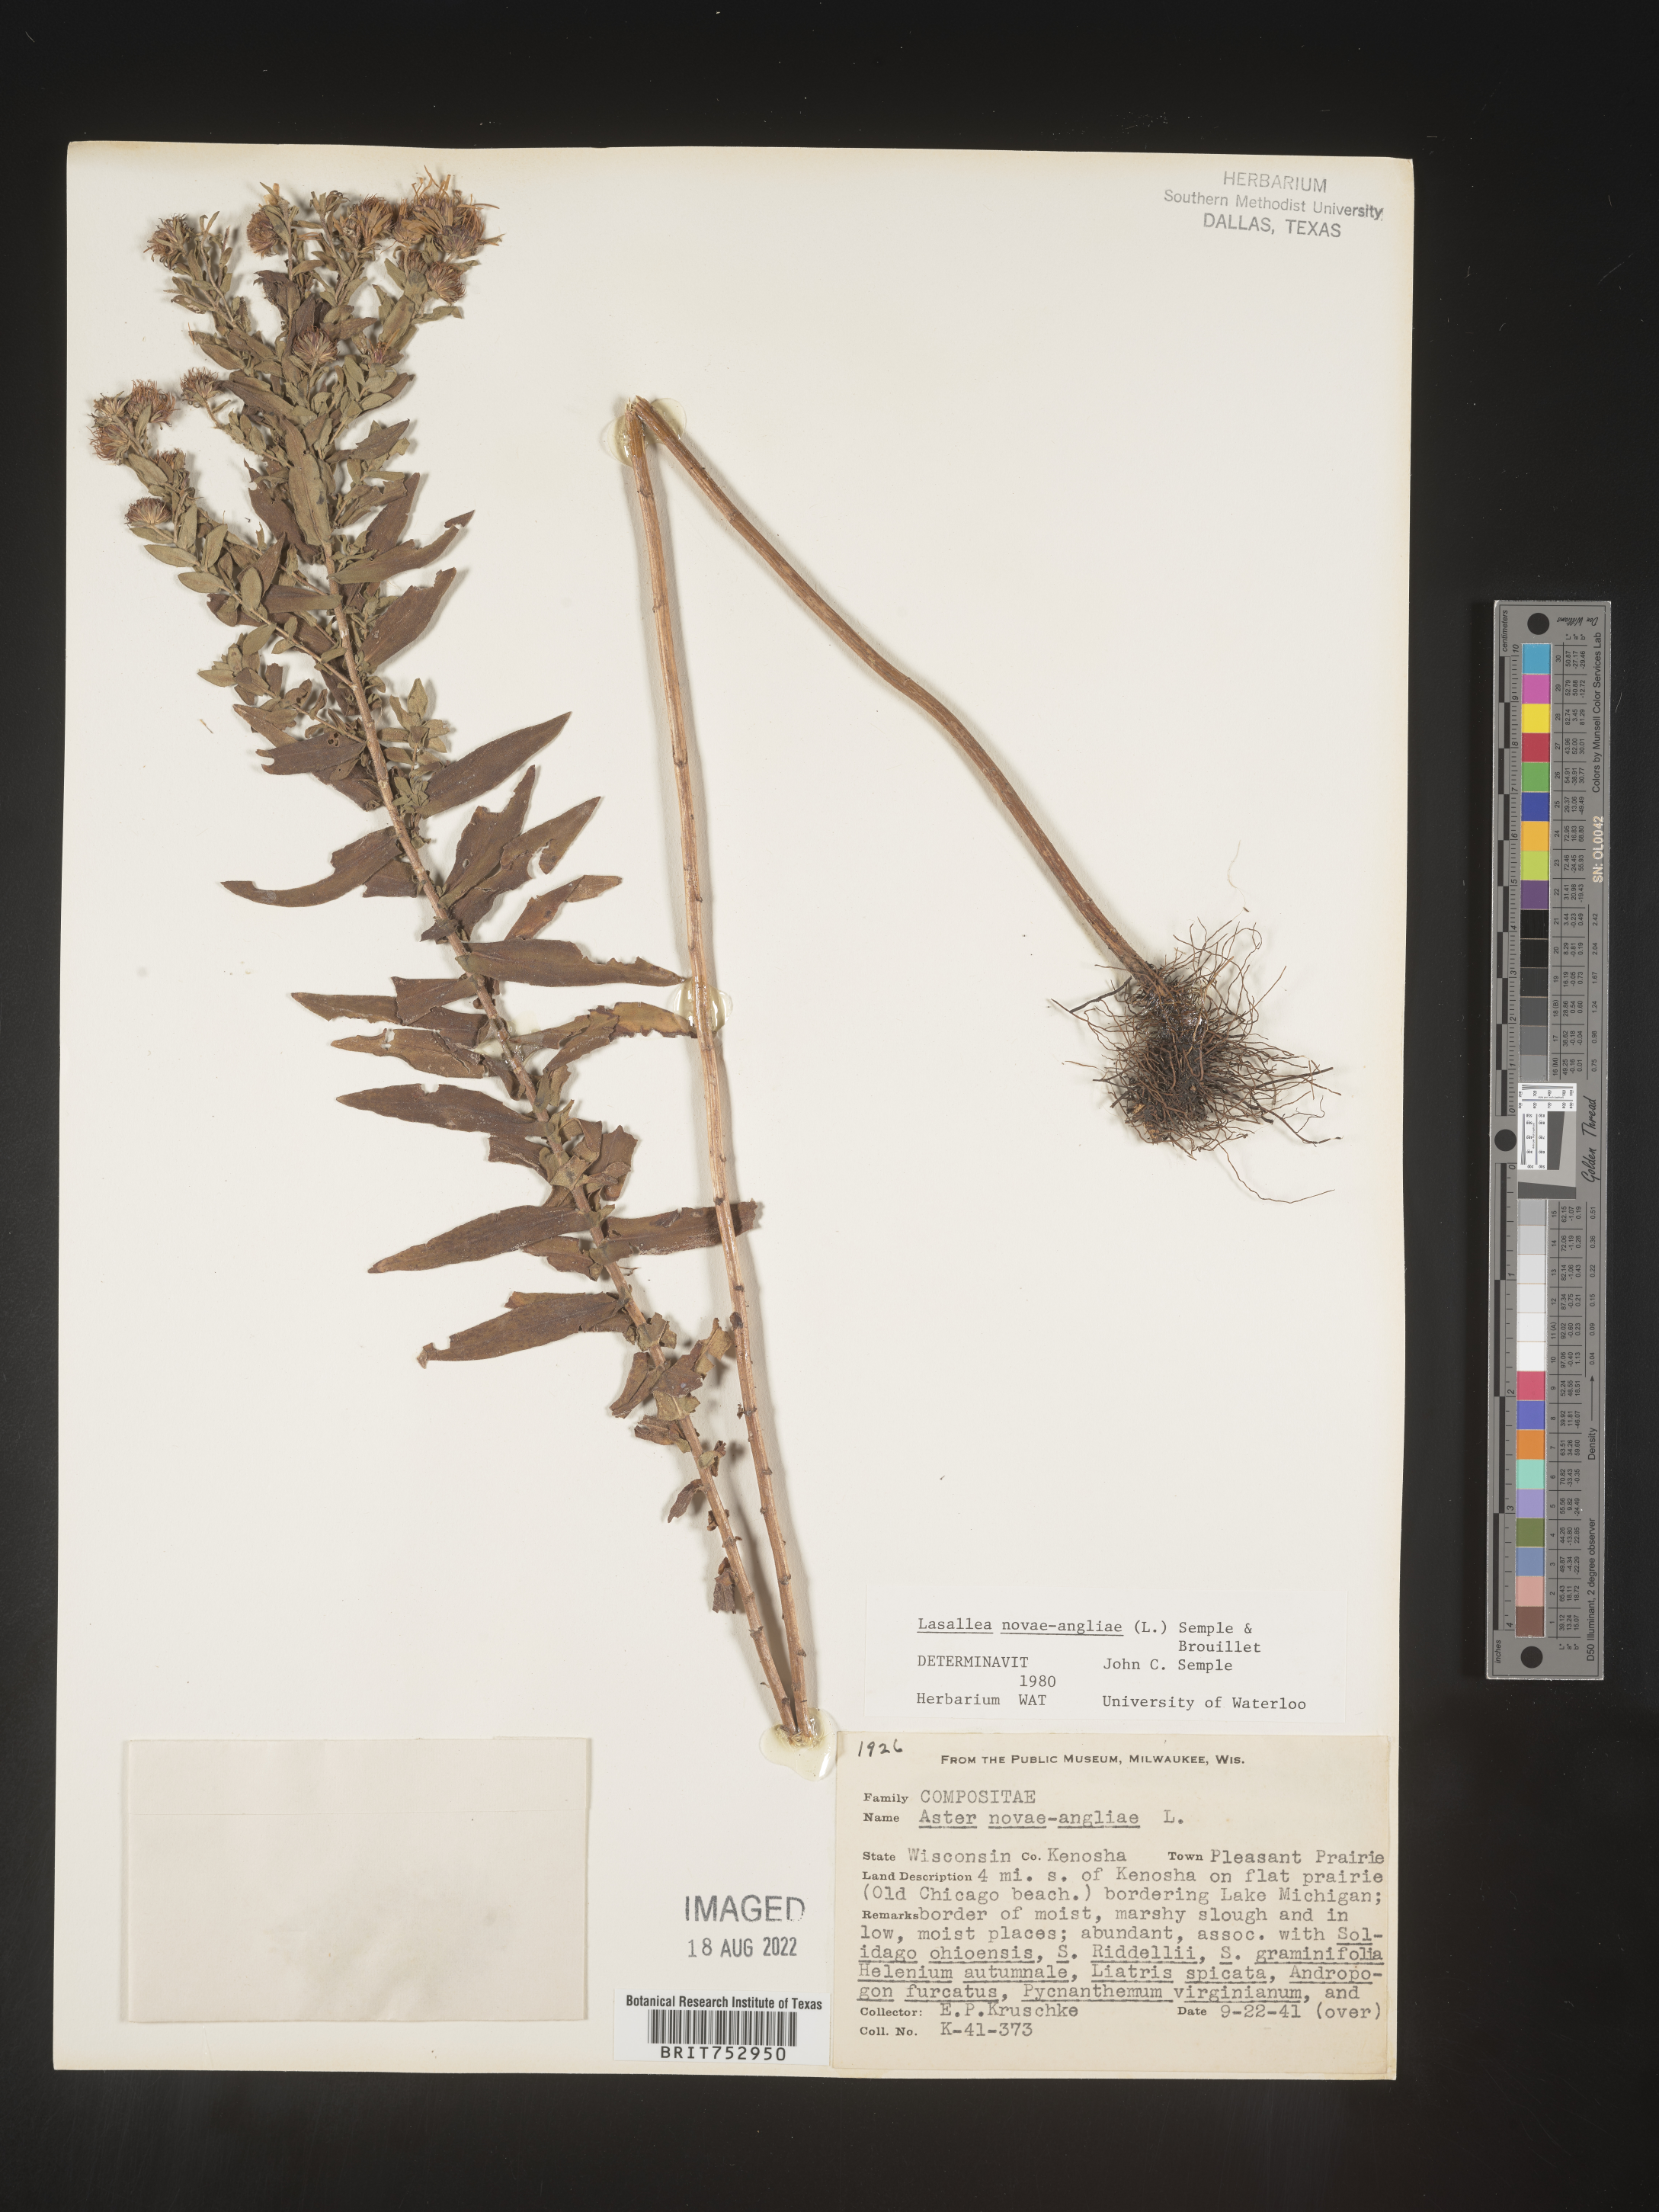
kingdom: Plantae
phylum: Tracheophyta
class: Magnoliopsida
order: Asterales
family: Asteraceae
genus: Symphyotrichum
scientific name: Symphyotrichum novae-angliae
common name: Michaelmas daisy
